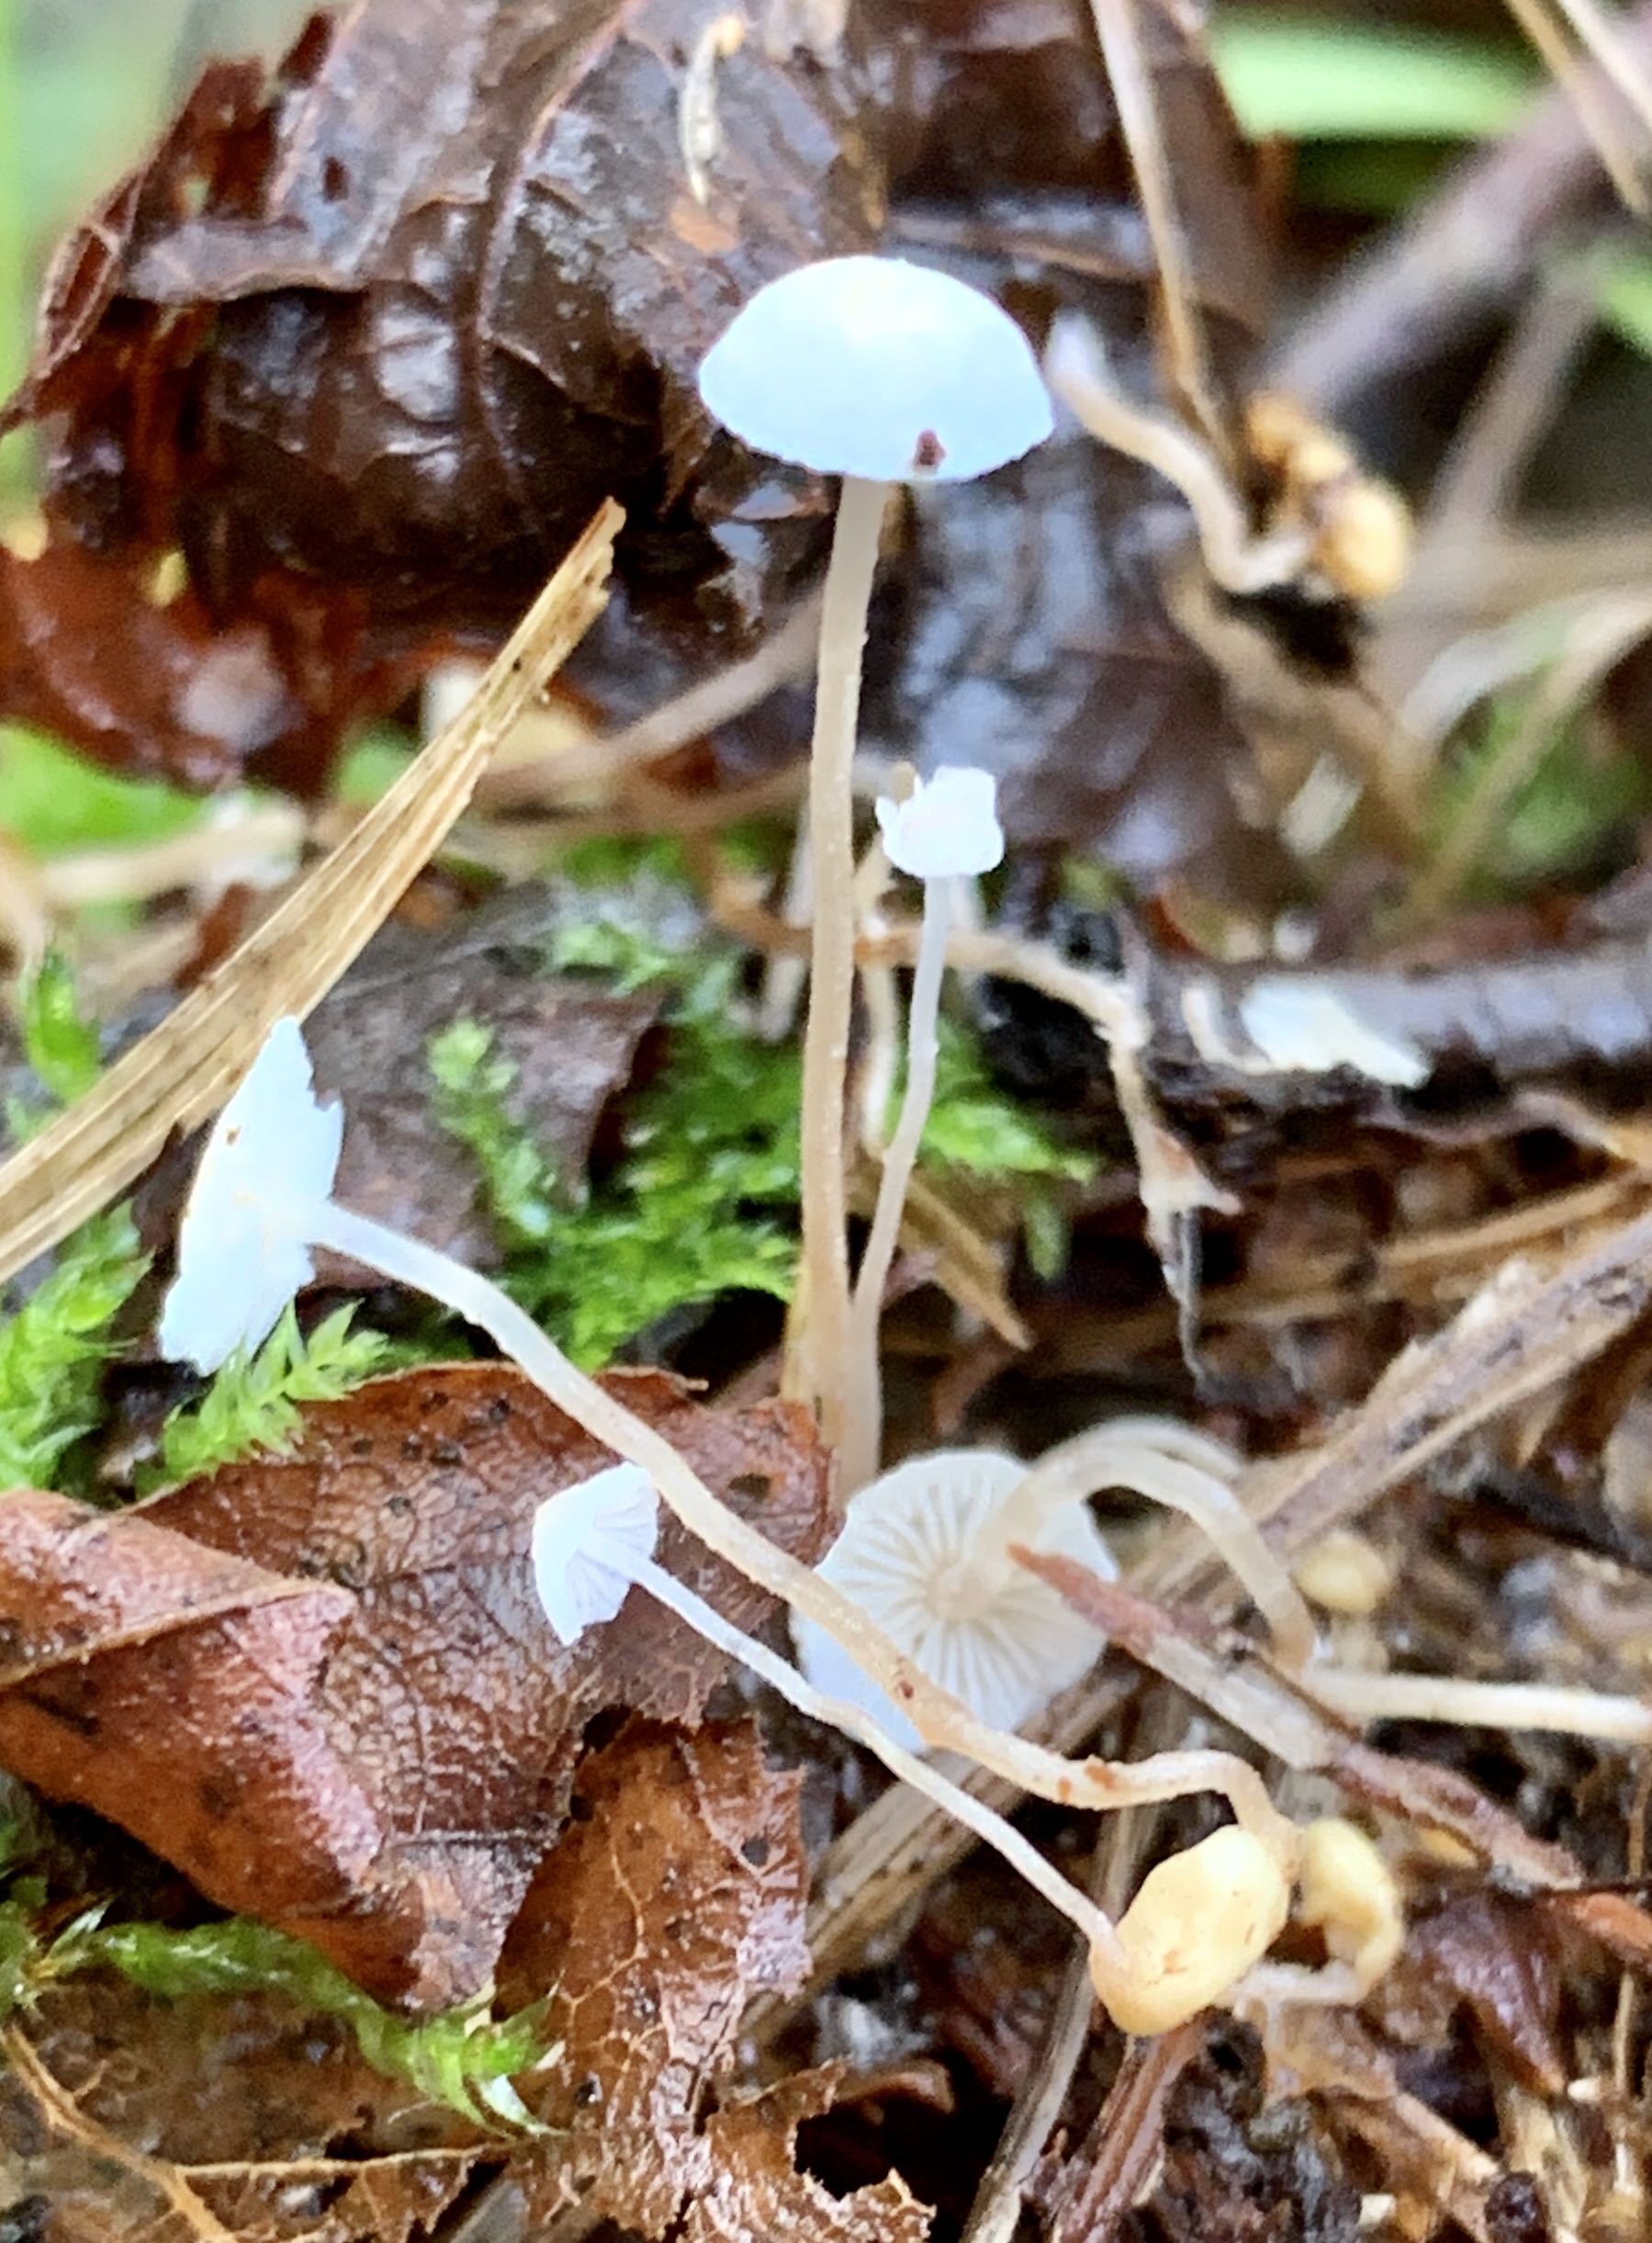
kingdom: Fungi
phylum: Basidiomycota
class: Agaricomycetes
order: Agaricales
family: Tricholomataceae
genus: Collybia
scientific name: Collybia cookei
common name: gulknoldet lighat
